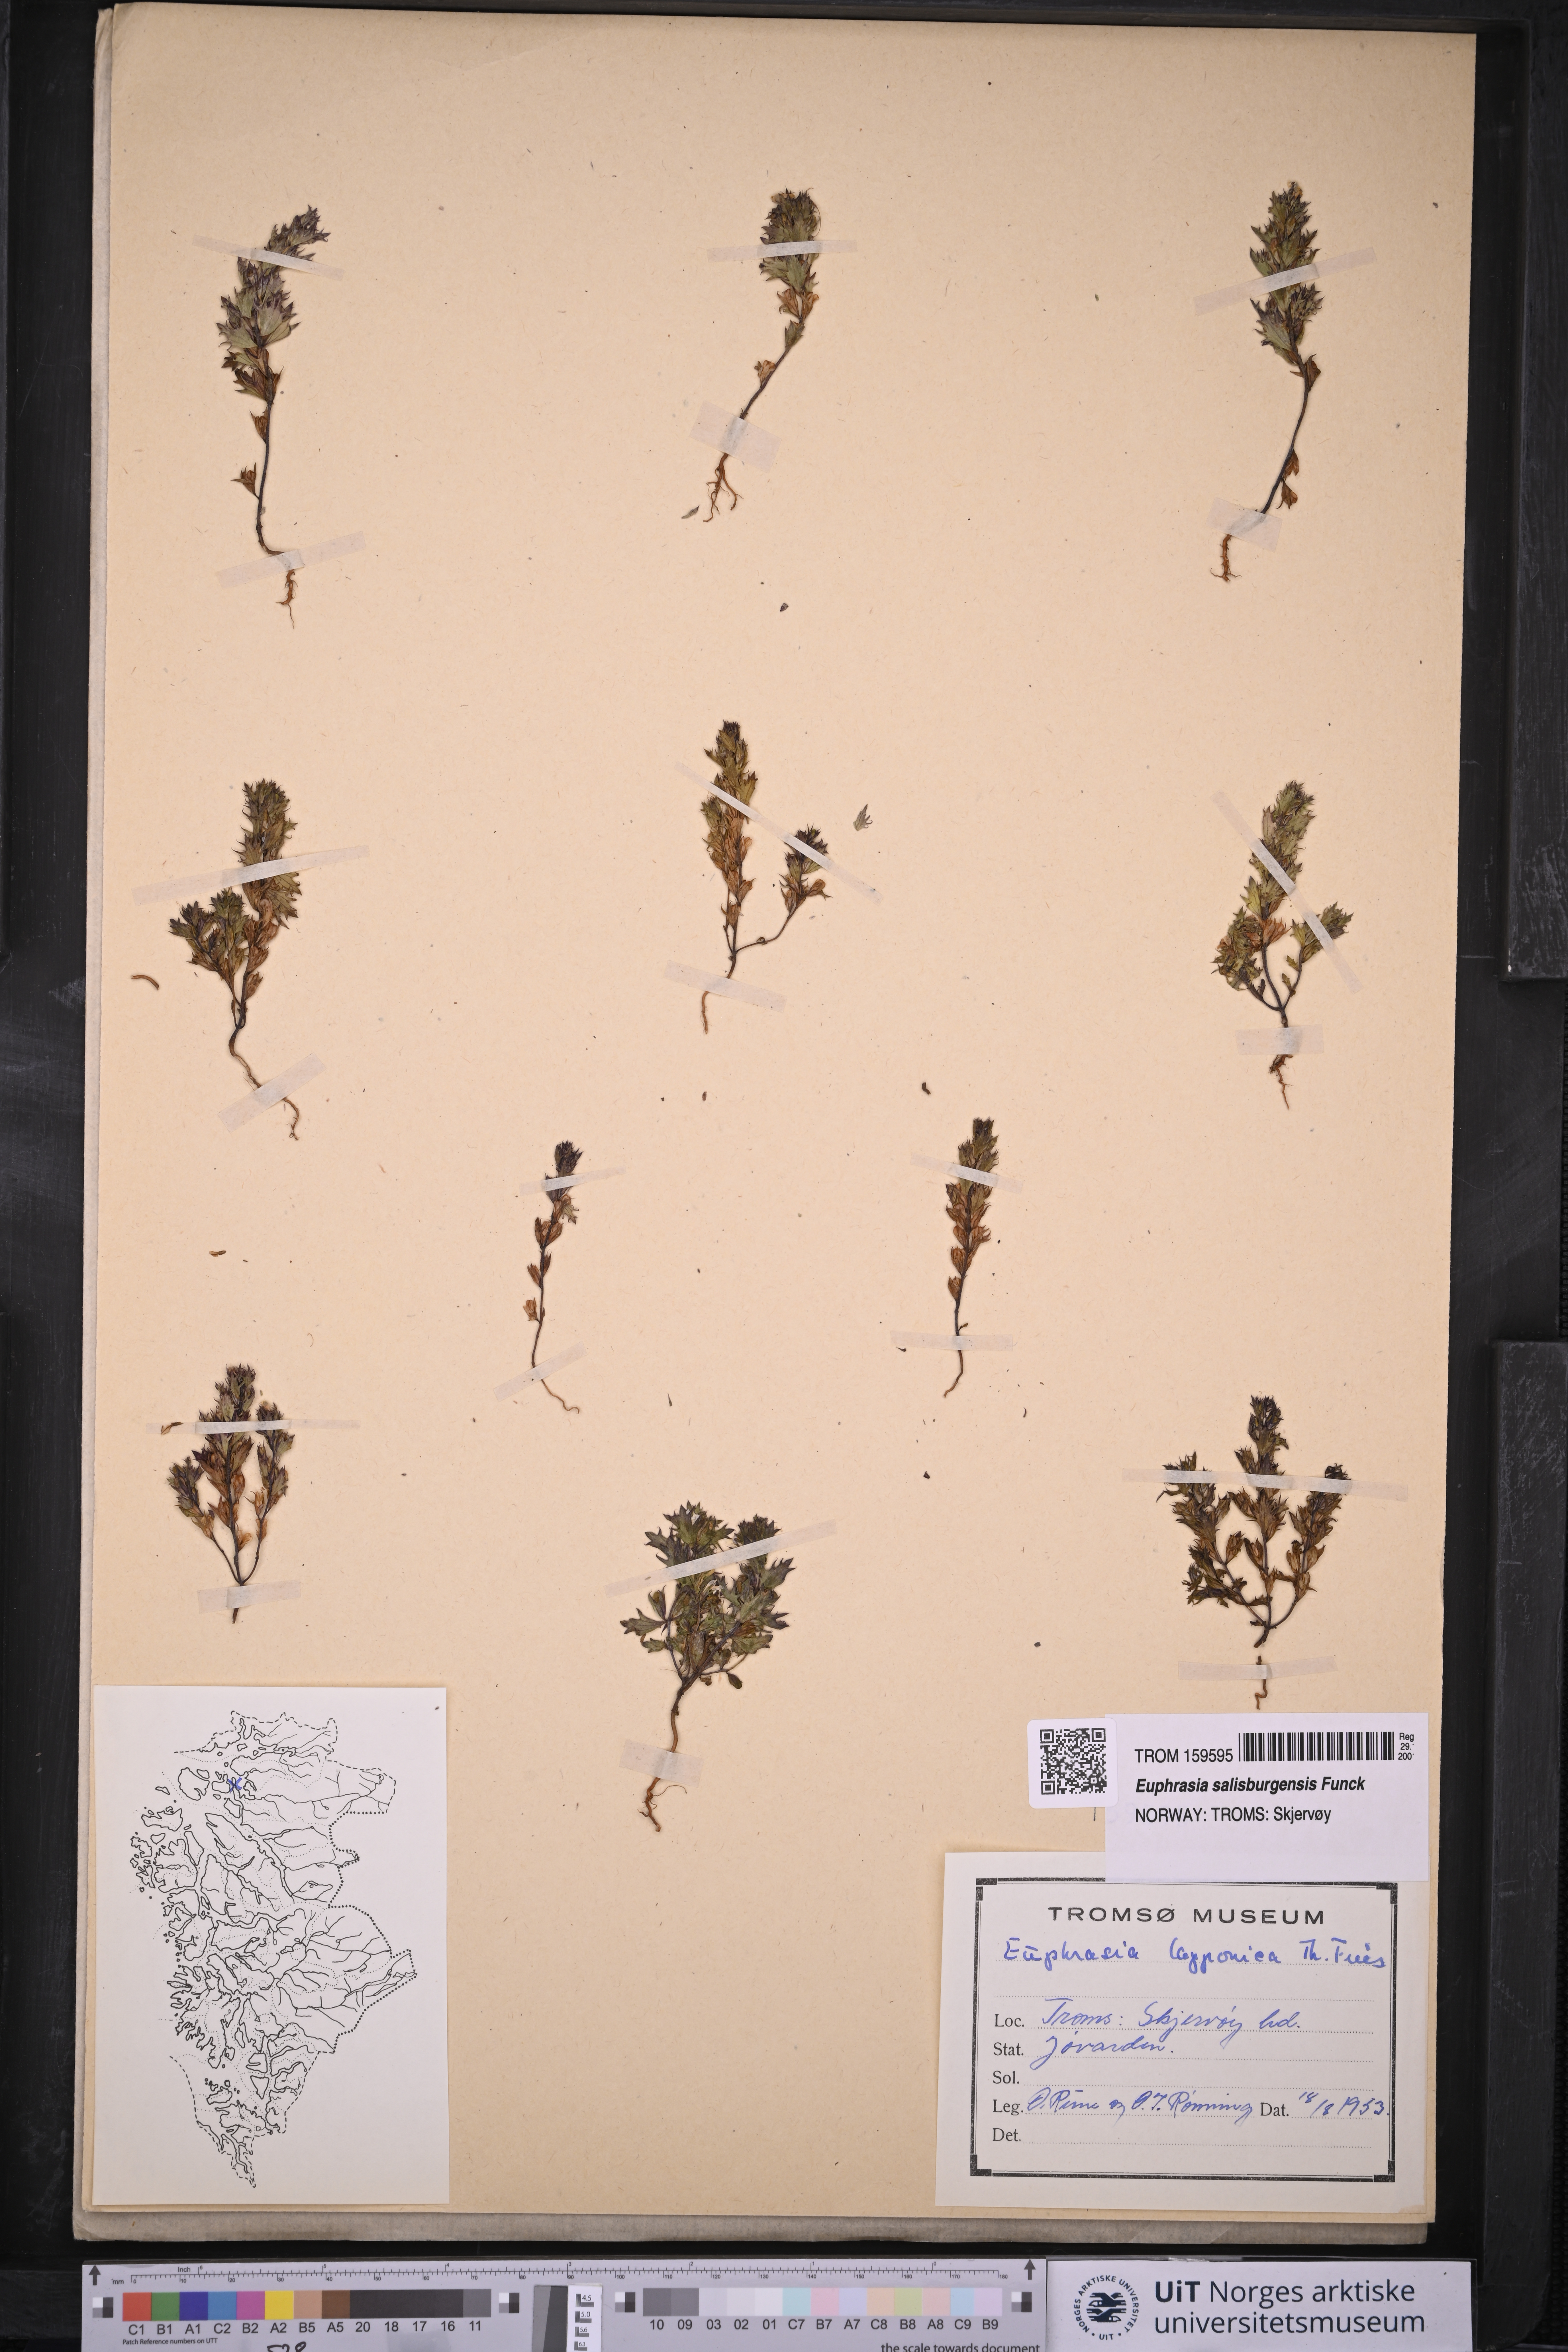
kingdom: Plantae
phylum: Tracheophyta
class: Magnoliopsida
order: Lamiales
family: Orobanchaceae
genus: Euphrasia
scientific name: Euphrasia salisburgensis
